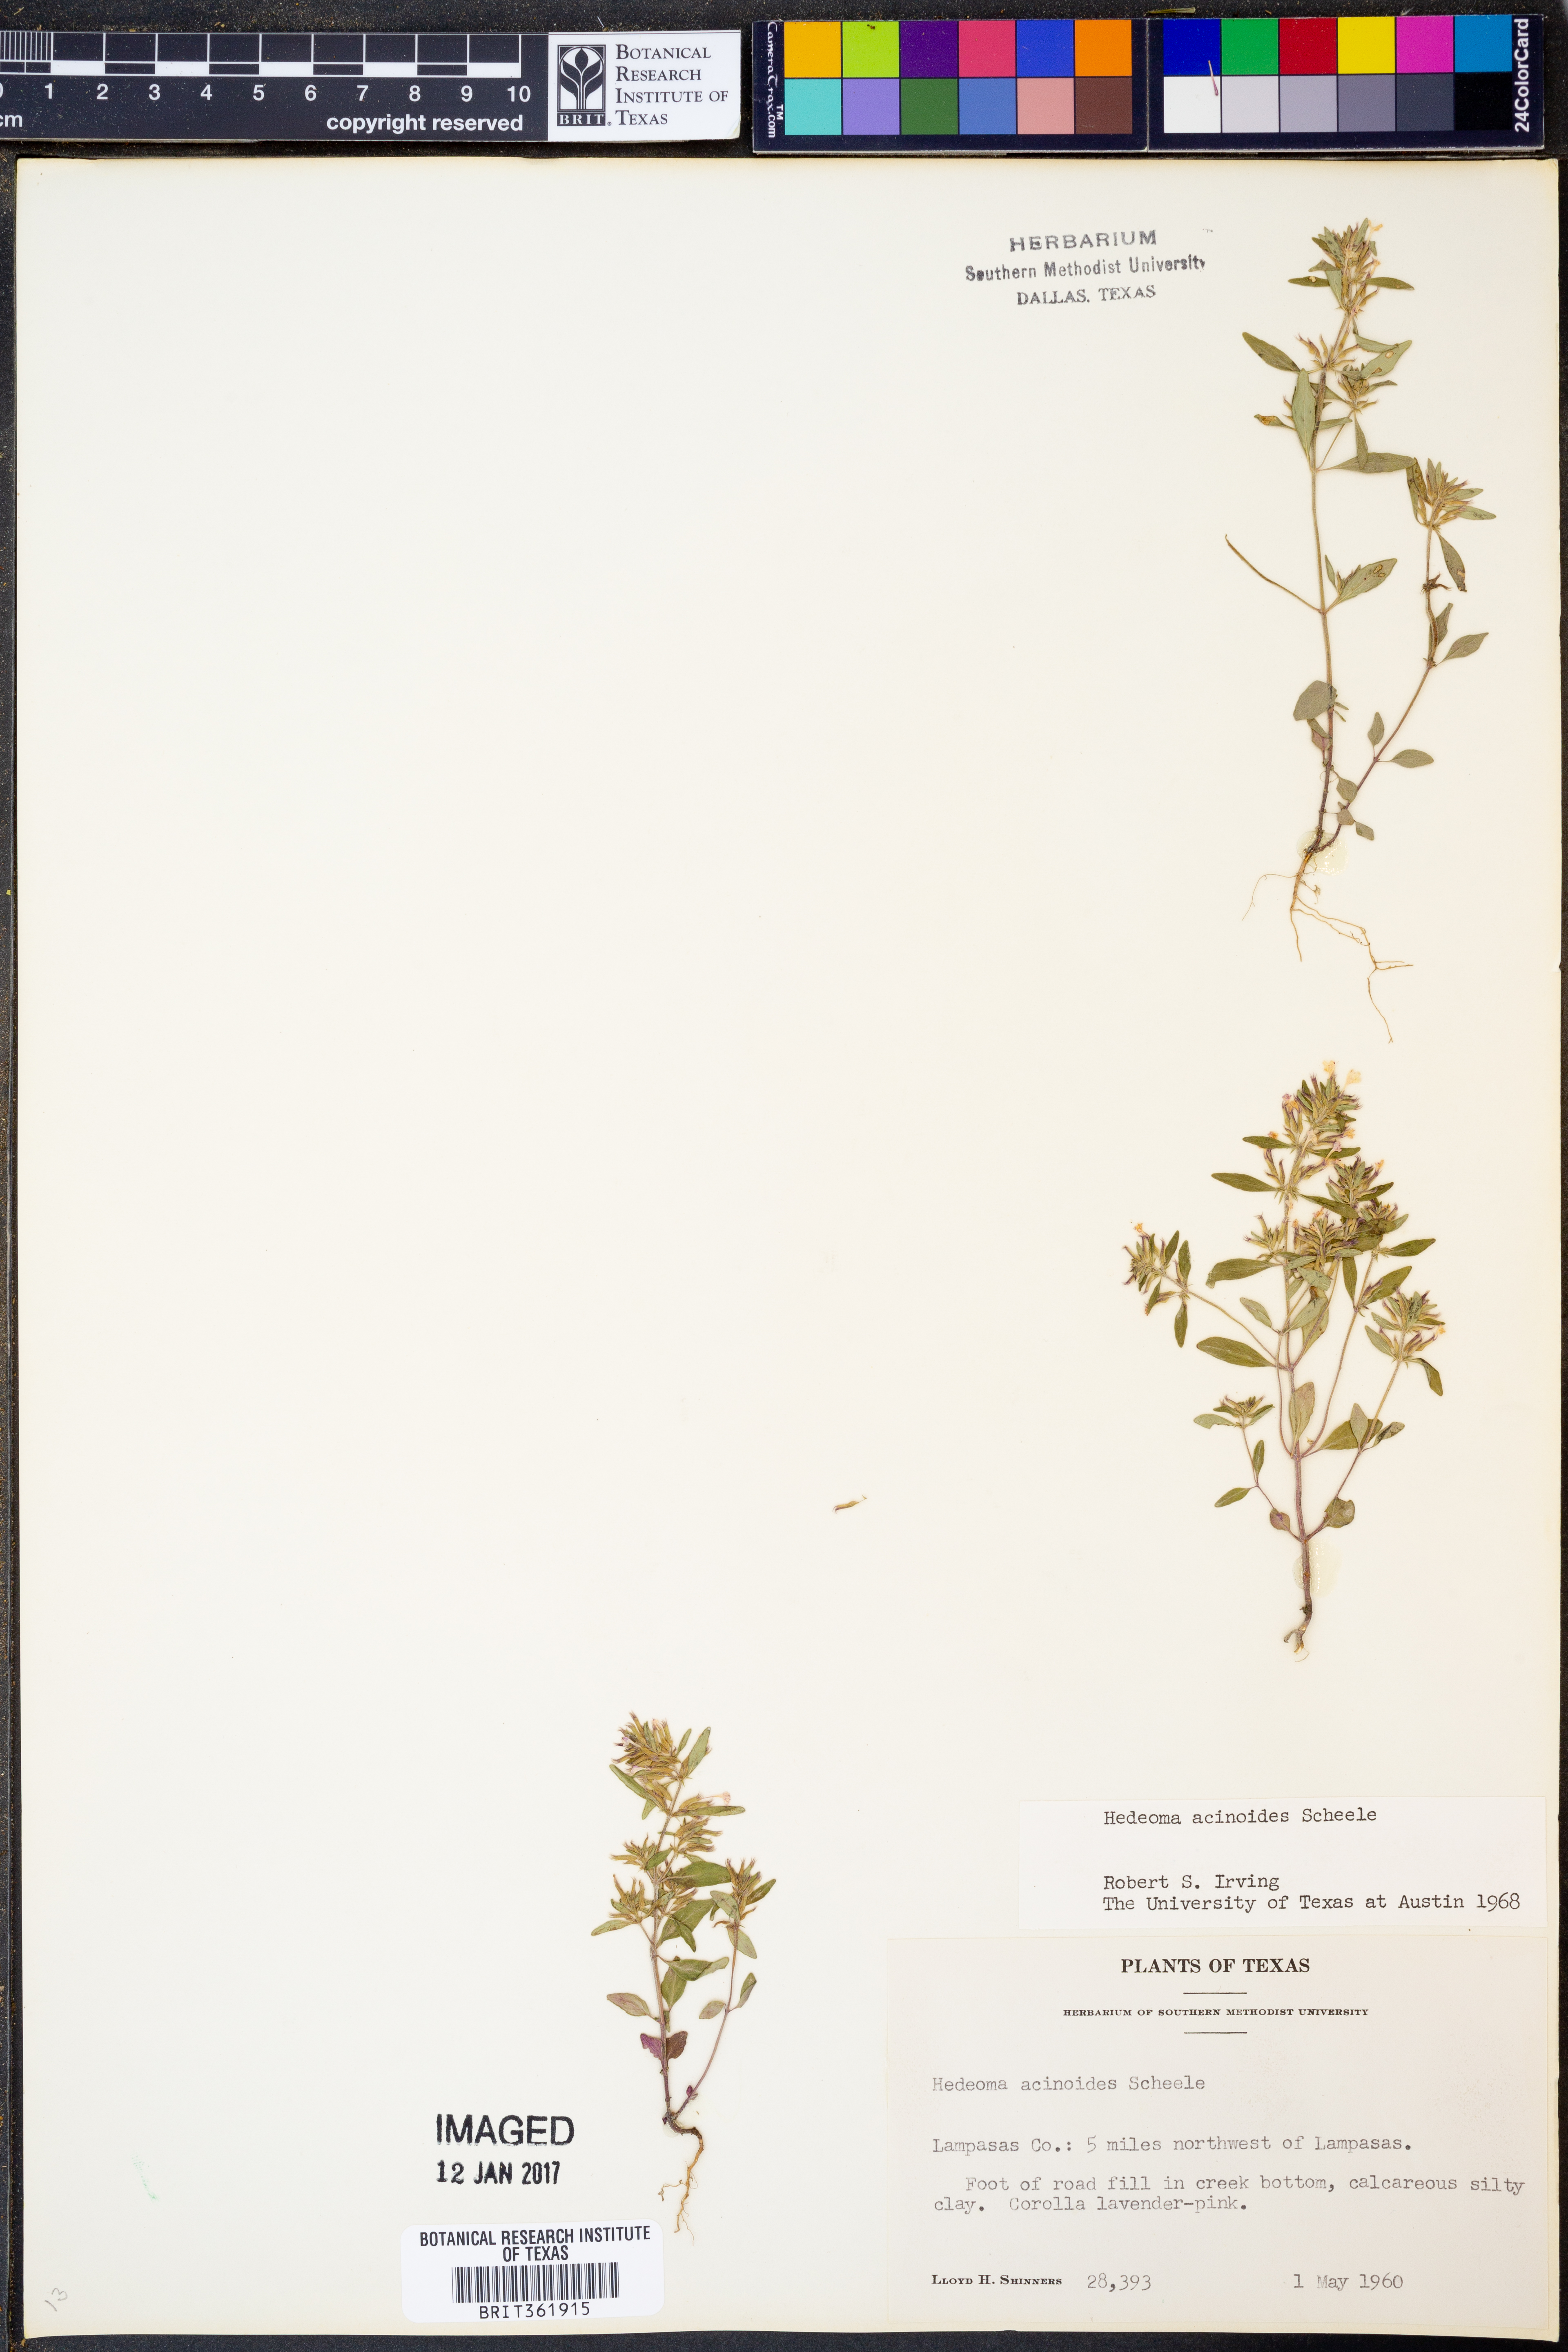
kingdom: Plantae
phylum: Tracheophyta
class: Magnoliopsida
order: Lamiales
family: Lamiaceae
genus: Hedeoma
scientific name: Hedeoma acinoides
